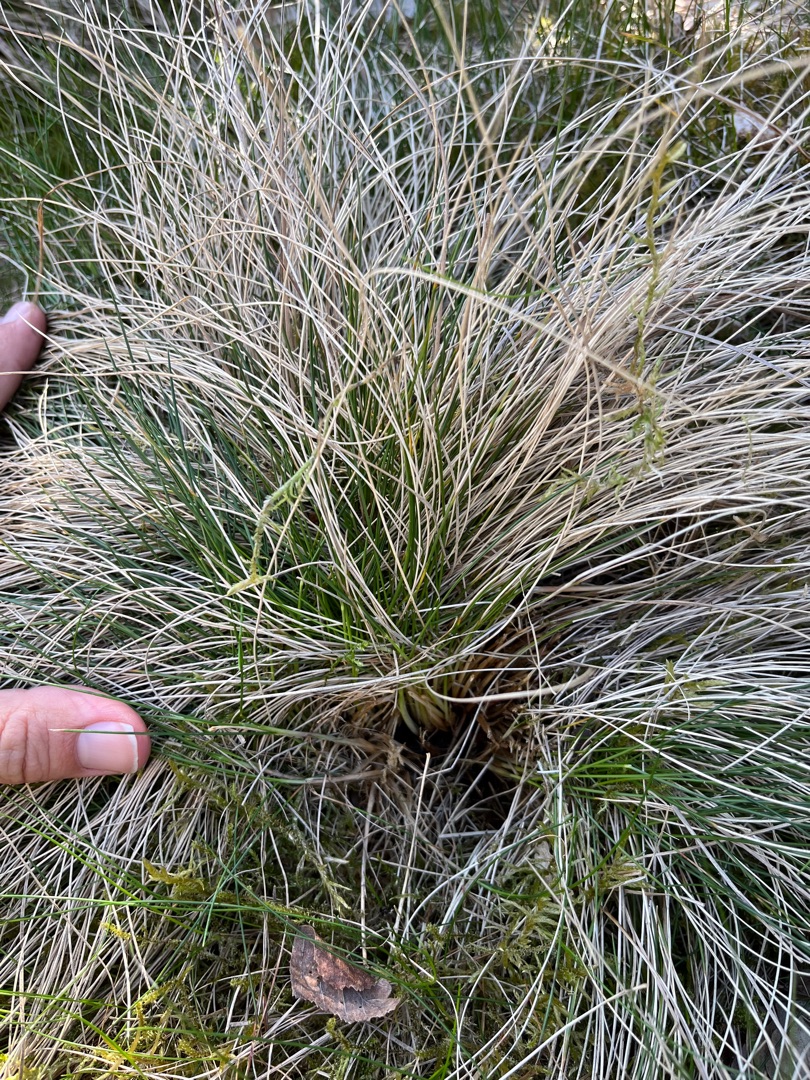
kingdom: Plantae
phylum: Tracheophyta
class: Liliopsida
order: Poales
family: Poaceae
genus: Nardus
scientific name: Nardus stricta
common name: Katteskæg
